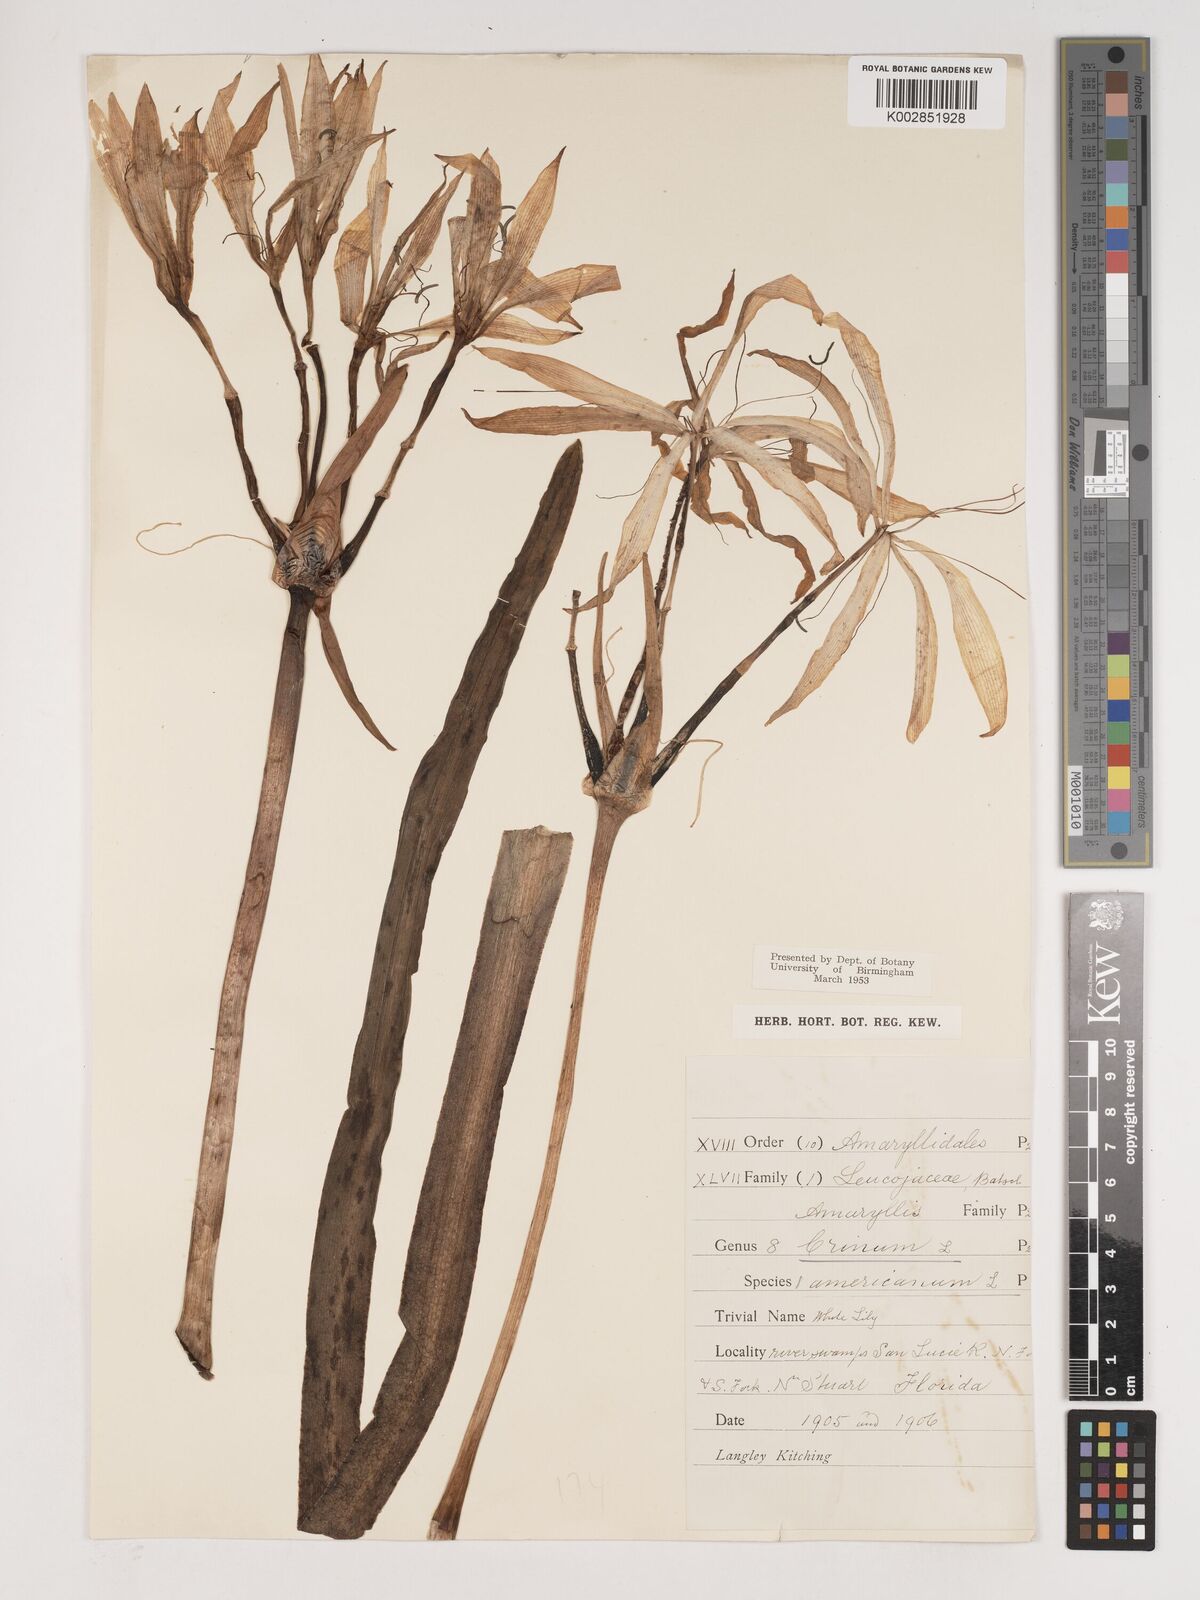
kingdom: Plantae
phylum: Tracheophyta
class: Liliopsida
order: Asparagales
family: Amaryllidaceae
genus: Crinum
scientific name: Crinum americanum
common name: Florida swamp-lily
